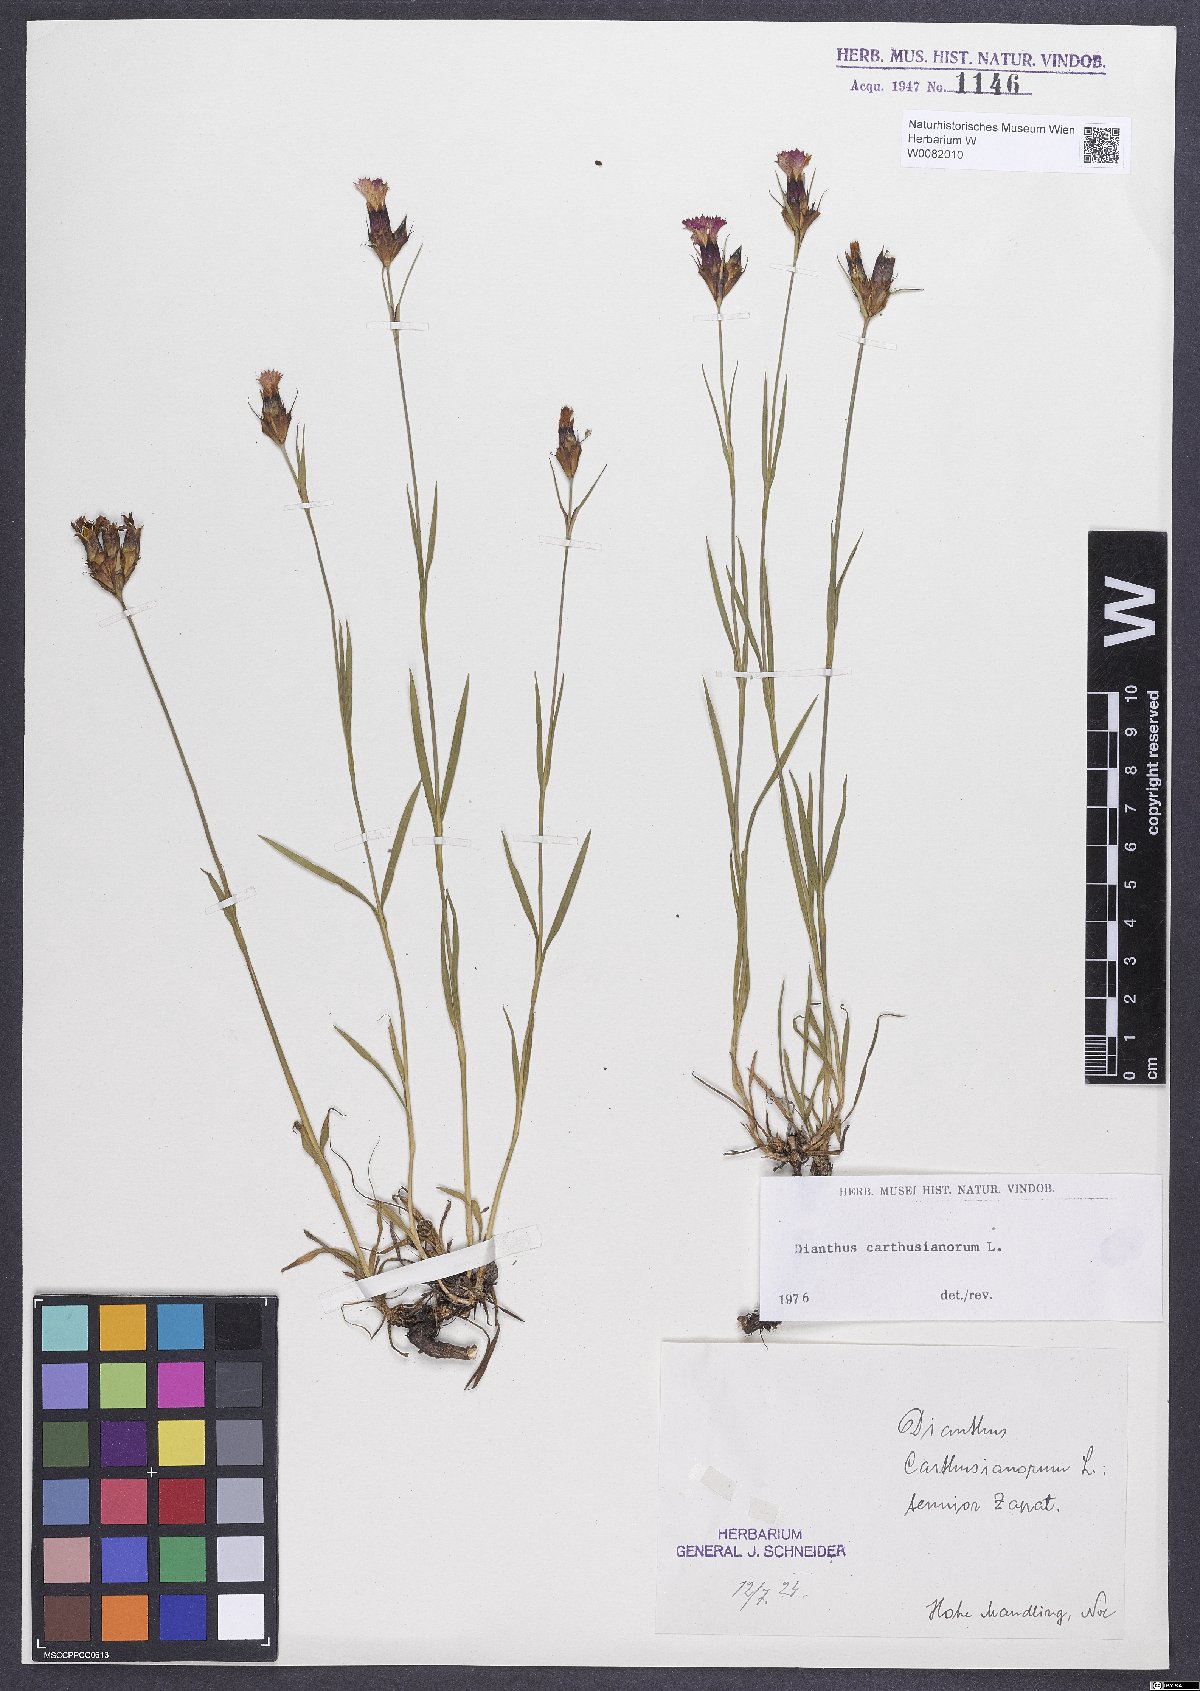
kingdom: Plantae
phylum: Tracheophyta
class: Magnoliopsida
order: Caryophyllales
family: Caryophyllaceae
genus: Dianthus
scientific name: Dianthus carthusianorum
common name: Carthusian pink
